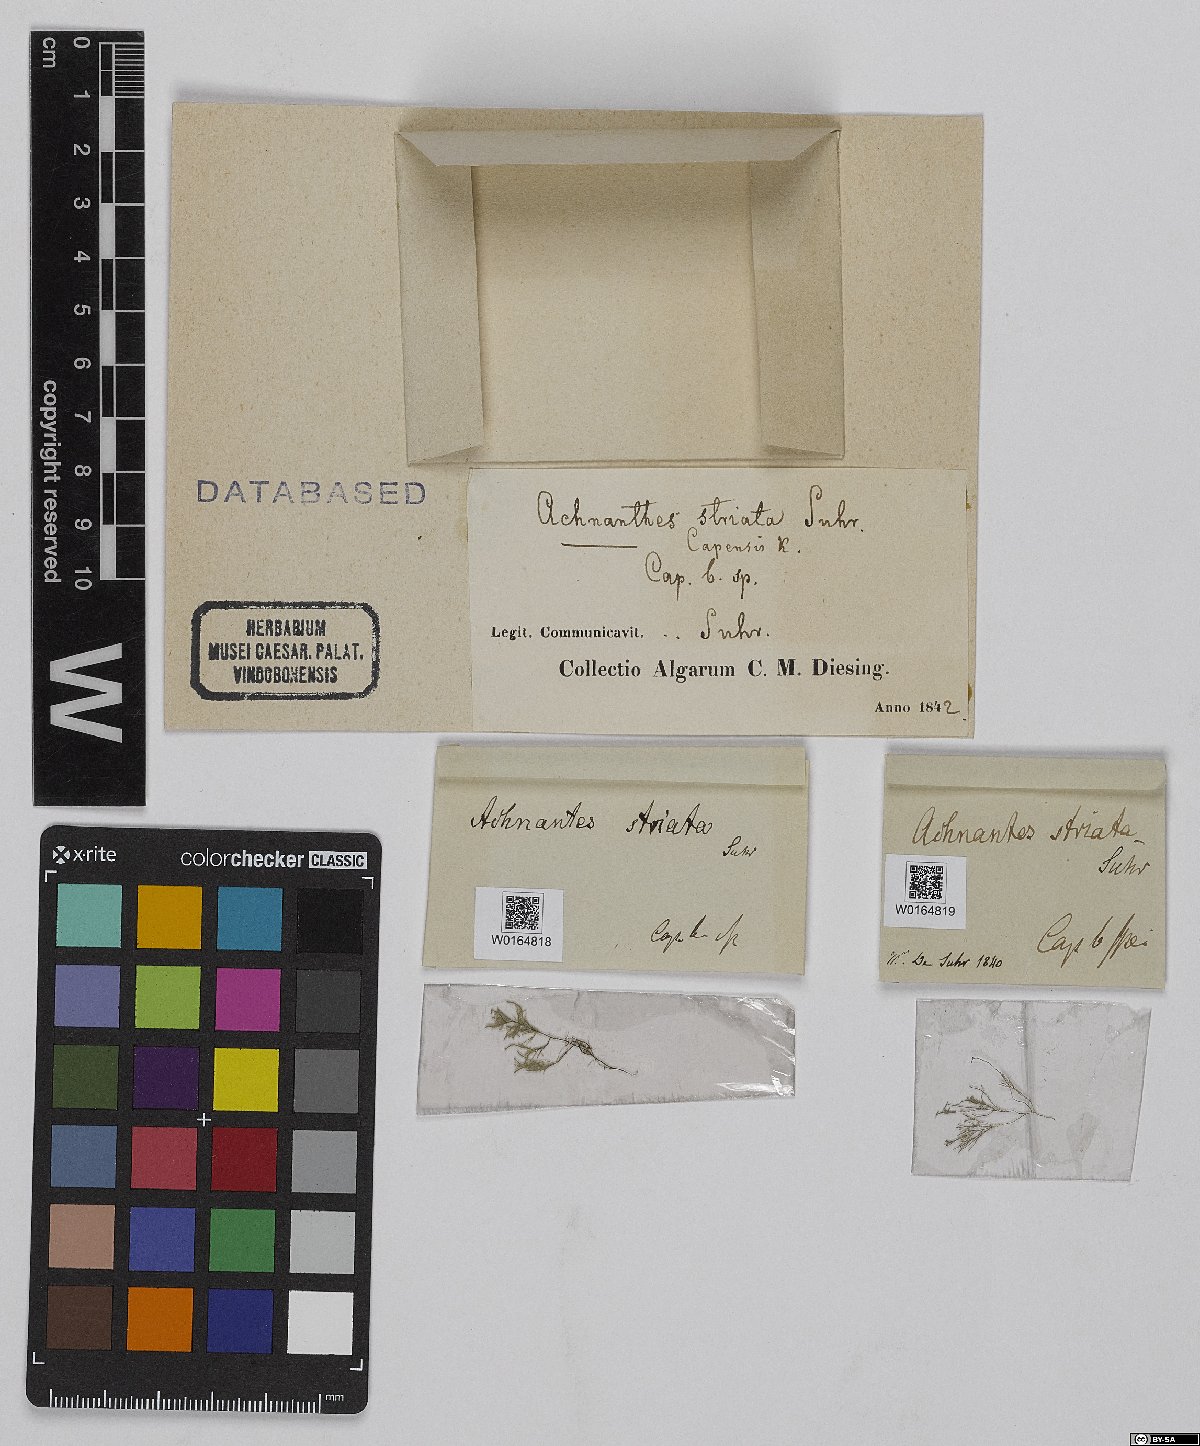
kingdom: Chromista
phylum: Ochrophyta
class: Bacillariophyceae
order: Achnanthales
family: Achnanthaceae
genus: Achnanthes
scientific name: Achnanthes capensis
